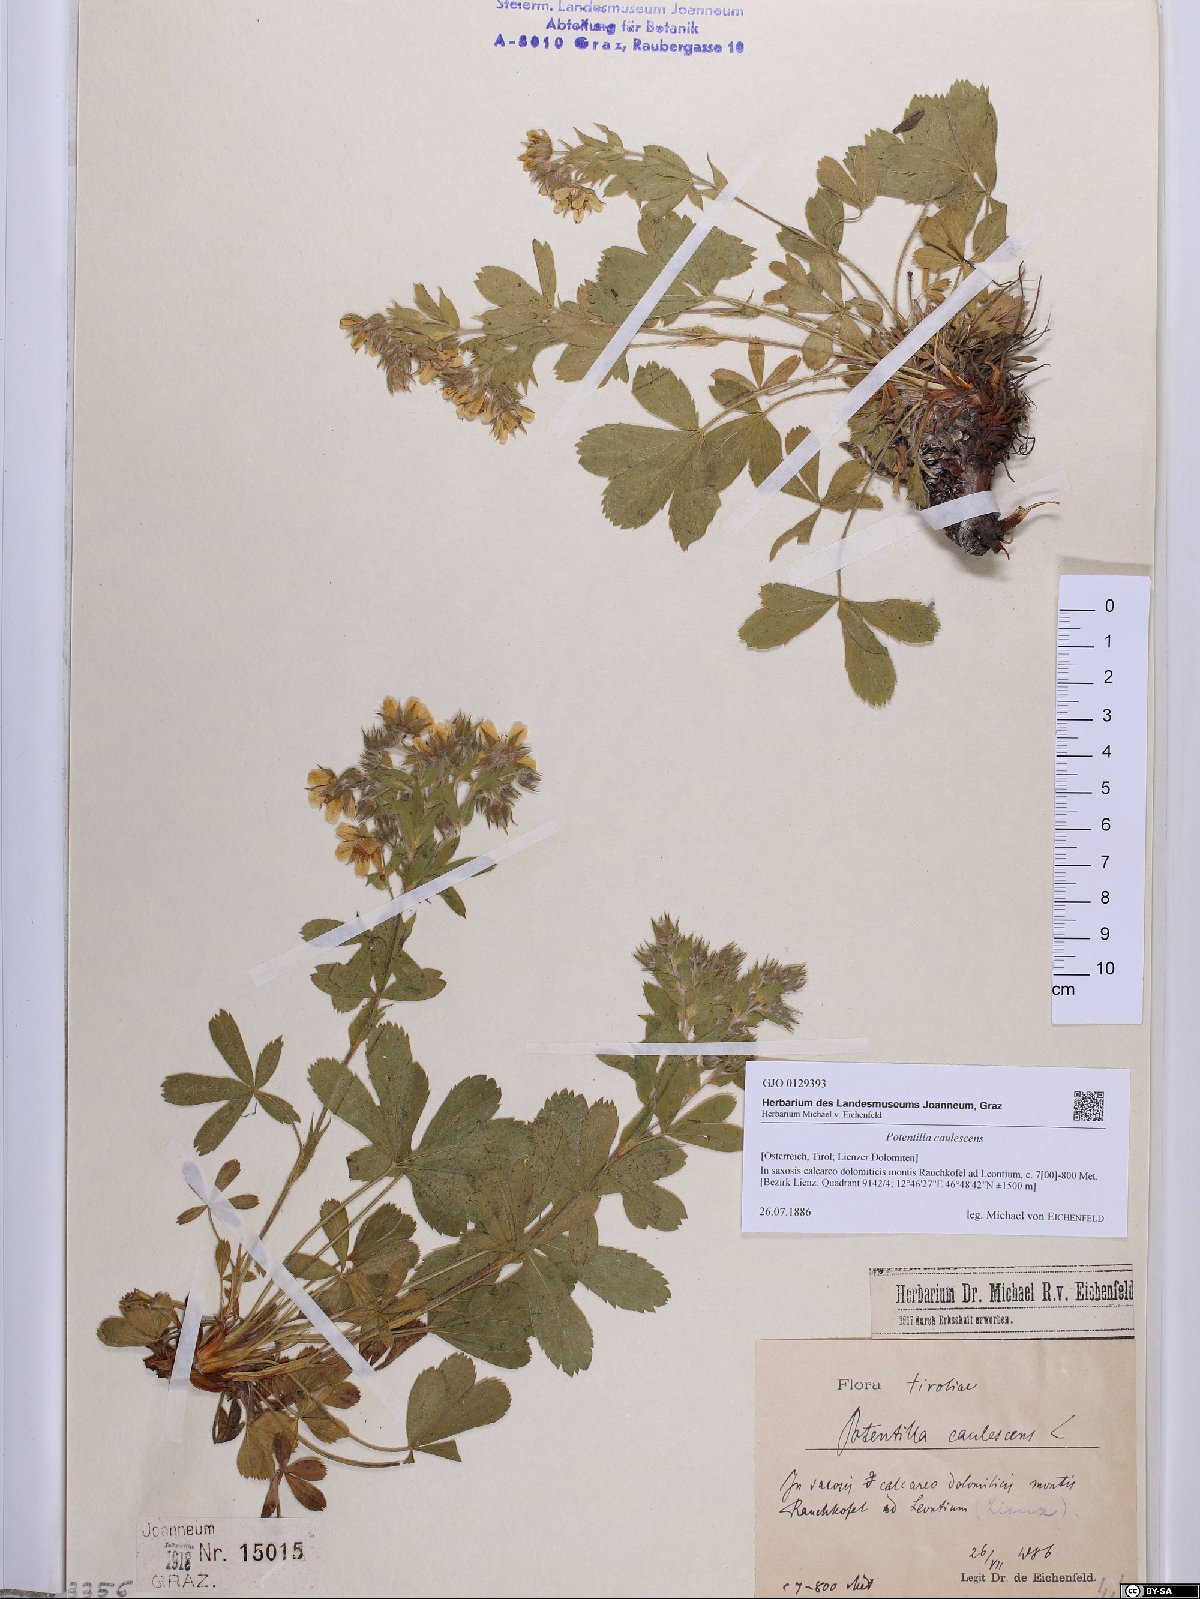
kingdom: Plantae
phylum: Tracheophyta
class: Magnoliopsida
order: Rosales
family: Rosaceae
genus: Potentilla
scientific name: Potentilla caulescens
